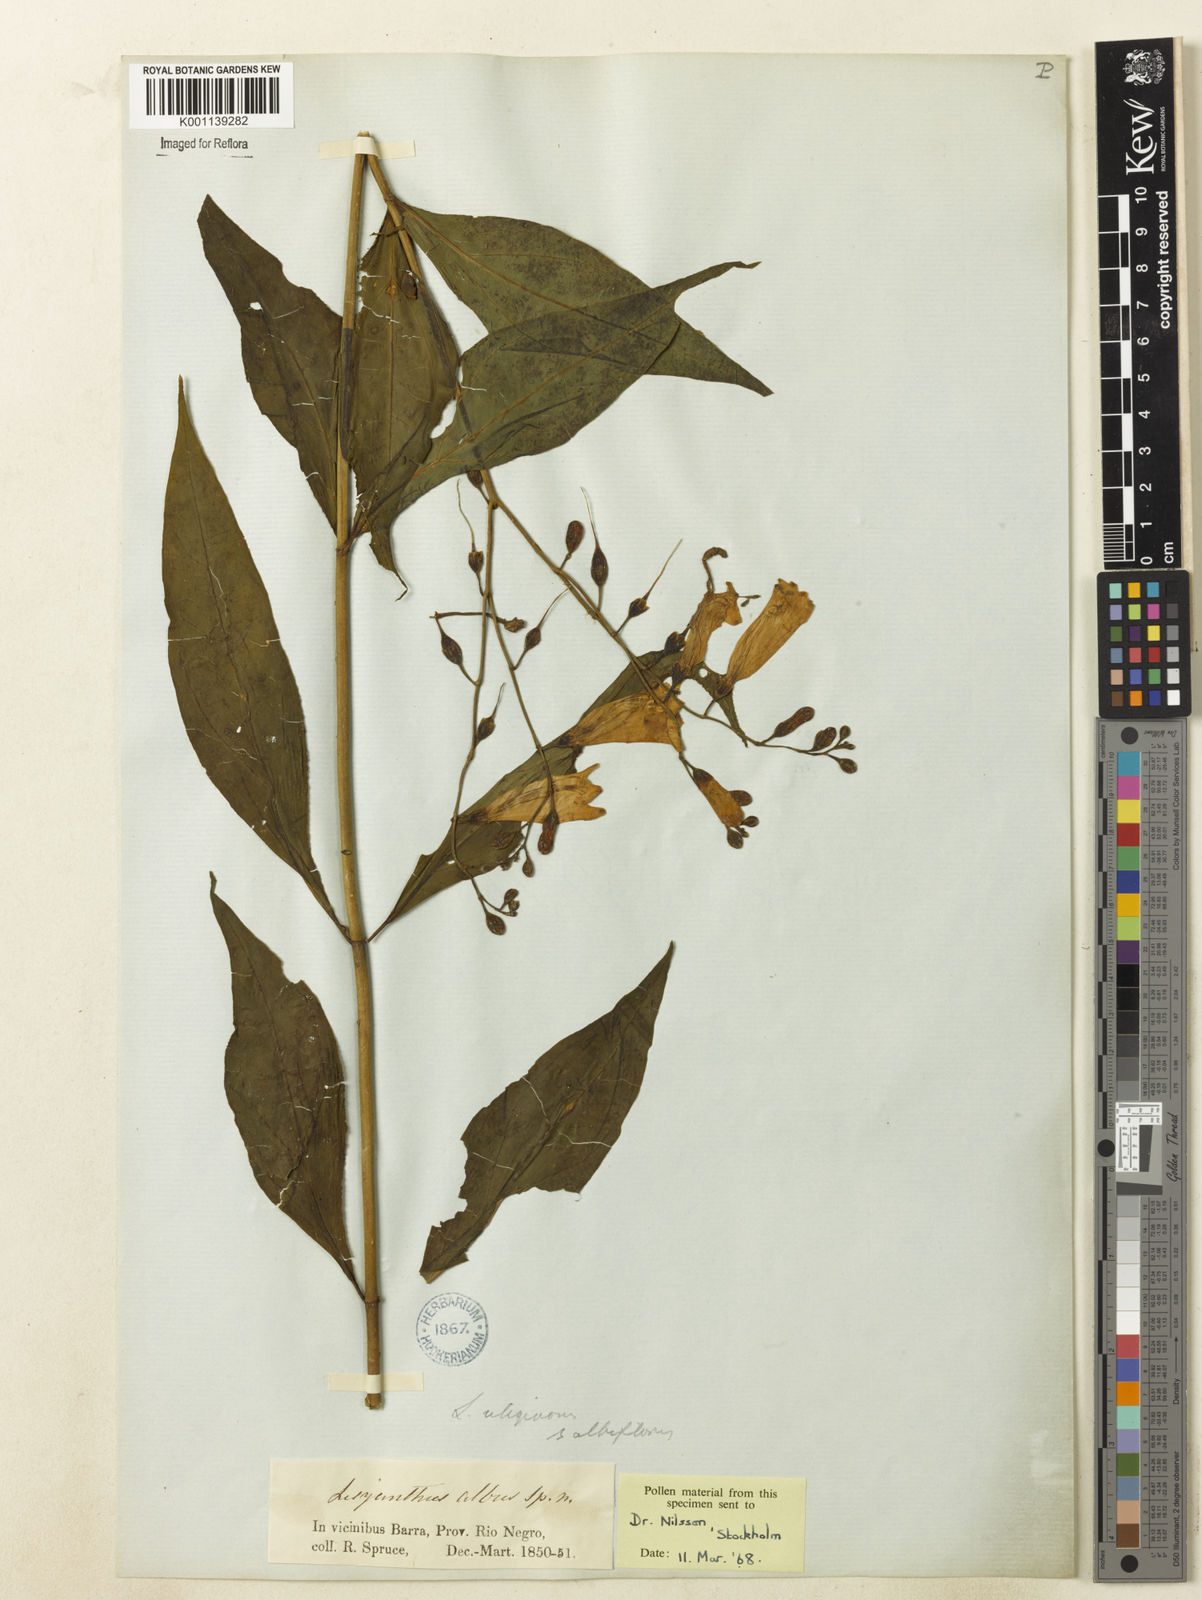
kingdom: Plantae
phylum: Tracheophyta
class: Magnoliopsida
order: Gentianales
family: Gentianaceae
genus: Chelonanthus
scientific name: Chelonanthus albus
